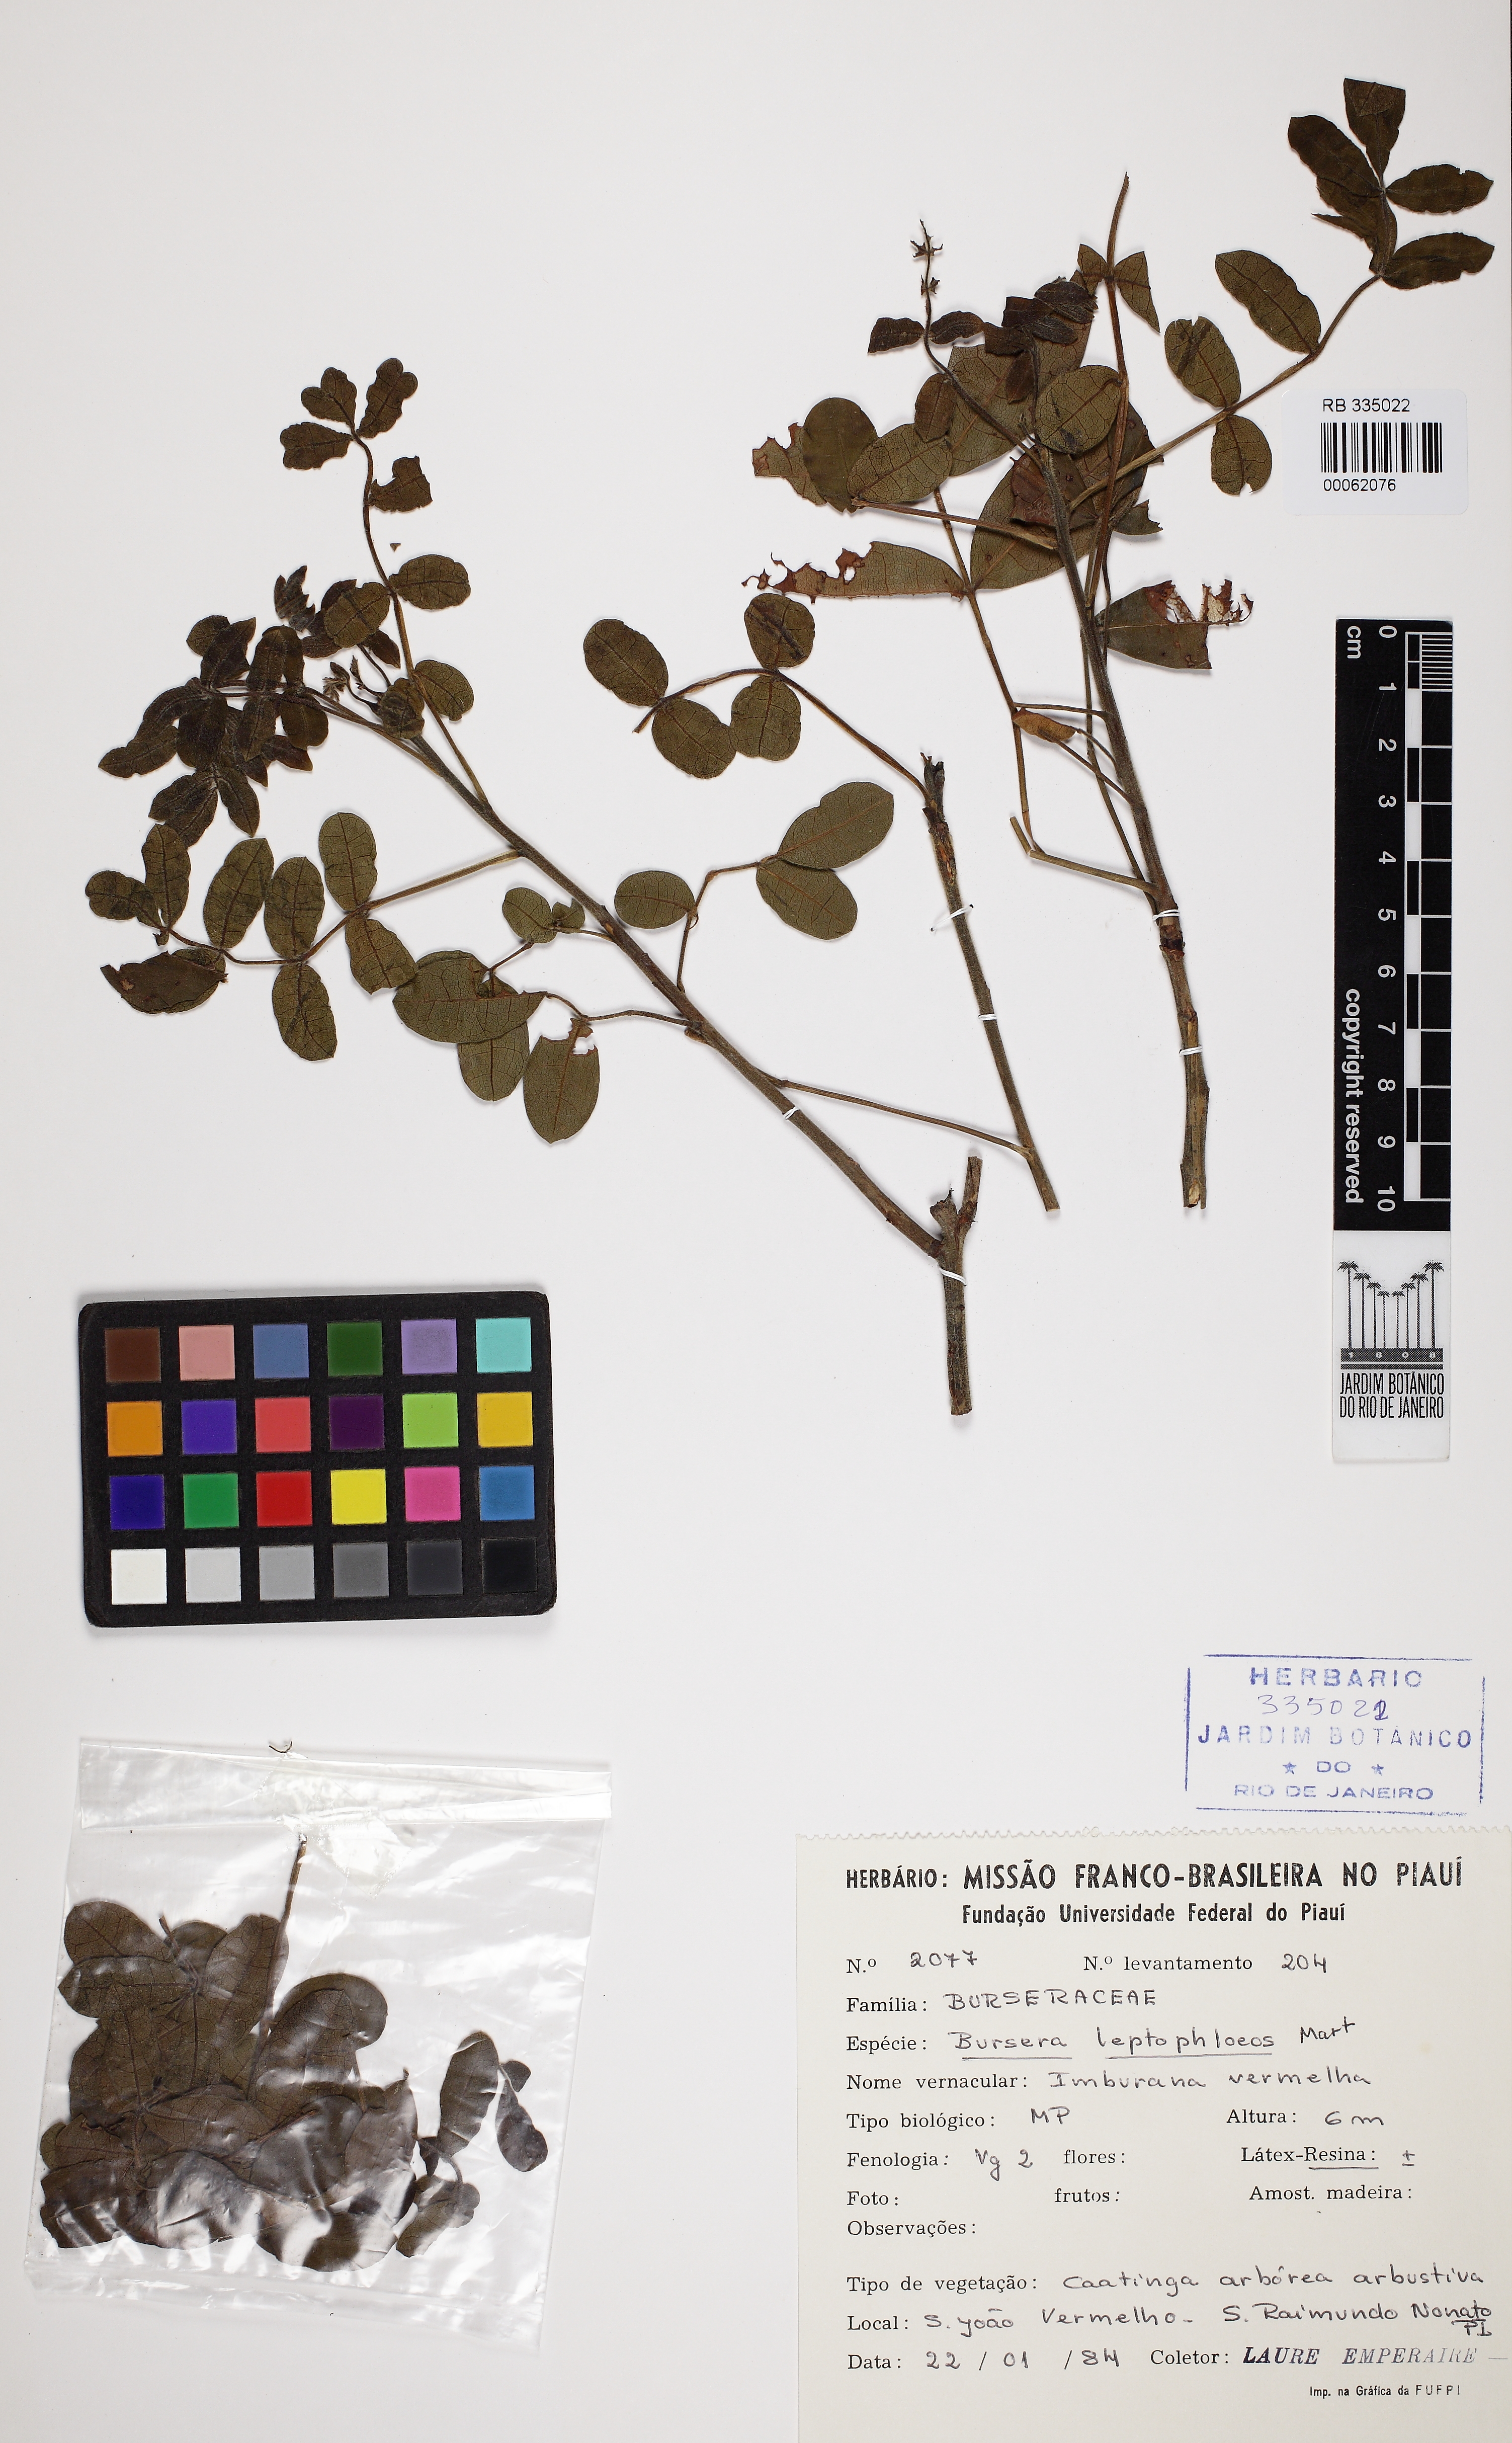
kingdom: Plantae
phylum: Tracheophyta
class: Magnoliopsida
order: Sapindales
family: Burseraceae
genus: Bursera
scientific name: Bursera leptophloeos
